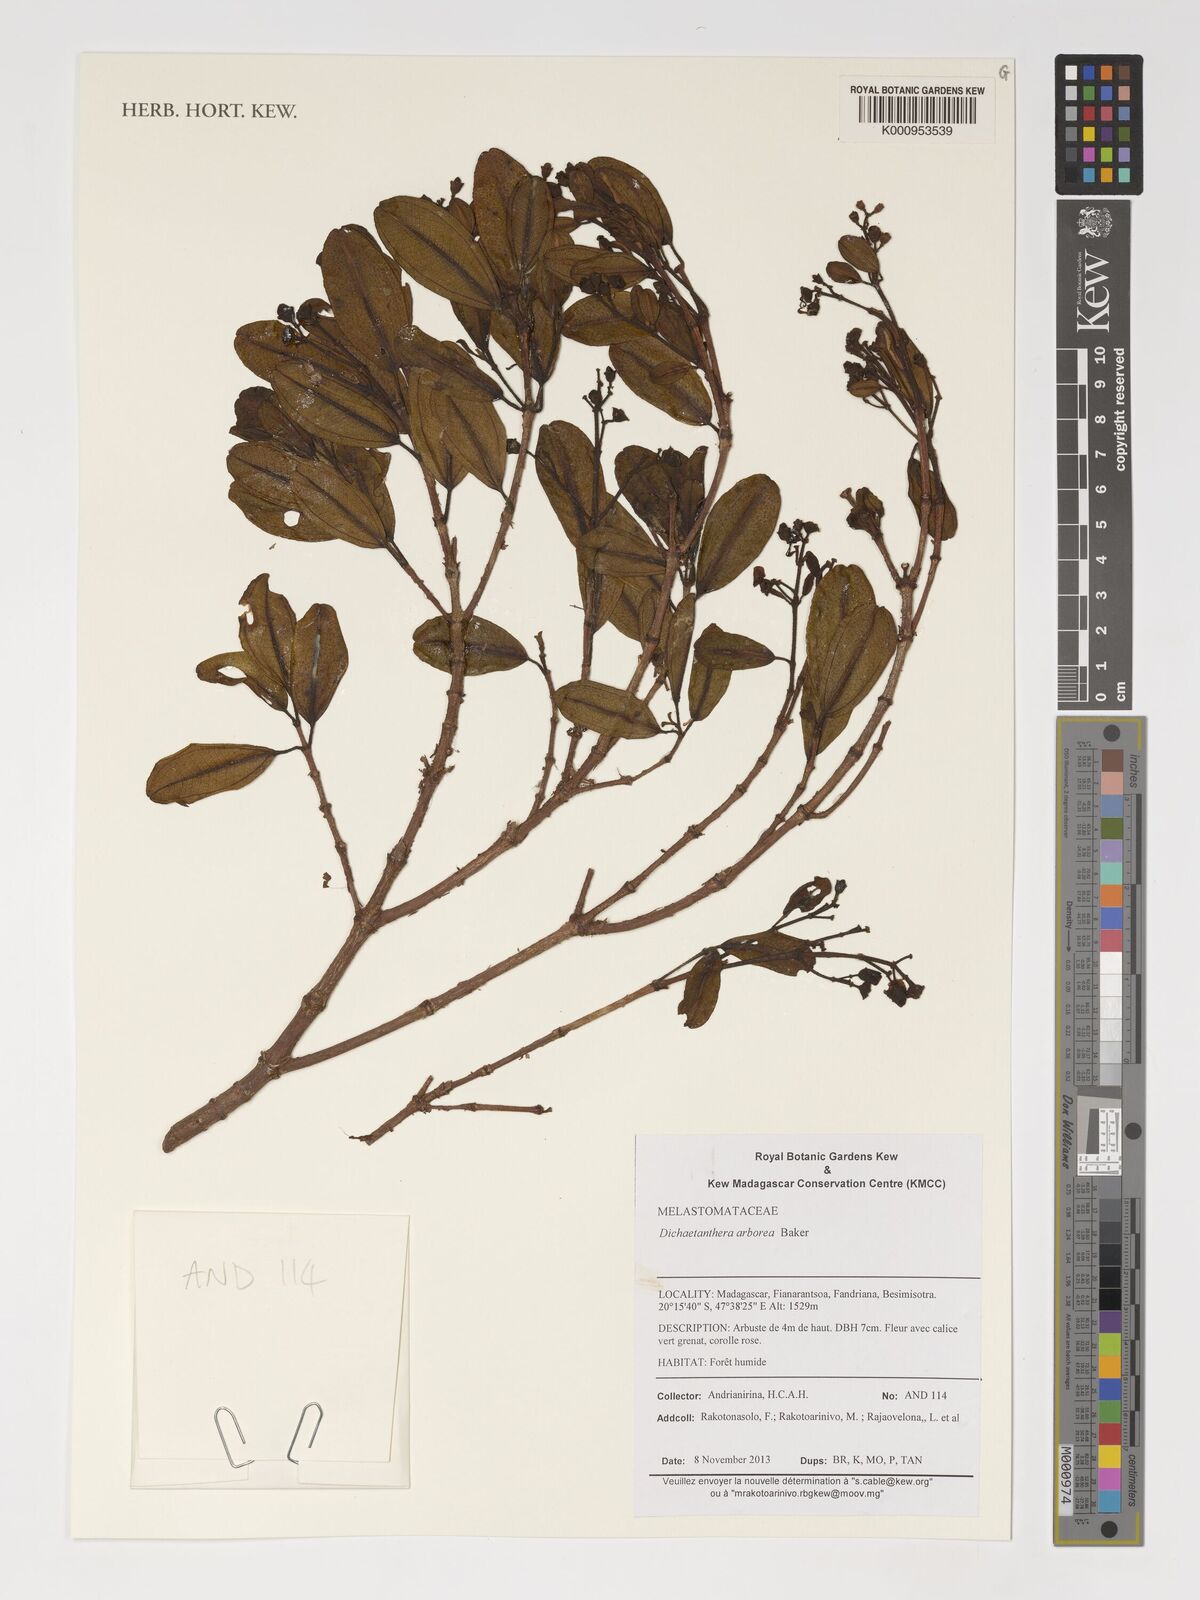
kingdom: Plantae
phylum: Tracheophyta
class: Magnoliopsida
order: Myrtales
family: Melastomataceae
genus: Dichaetanthera
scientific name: Dichaetanthera arborea
